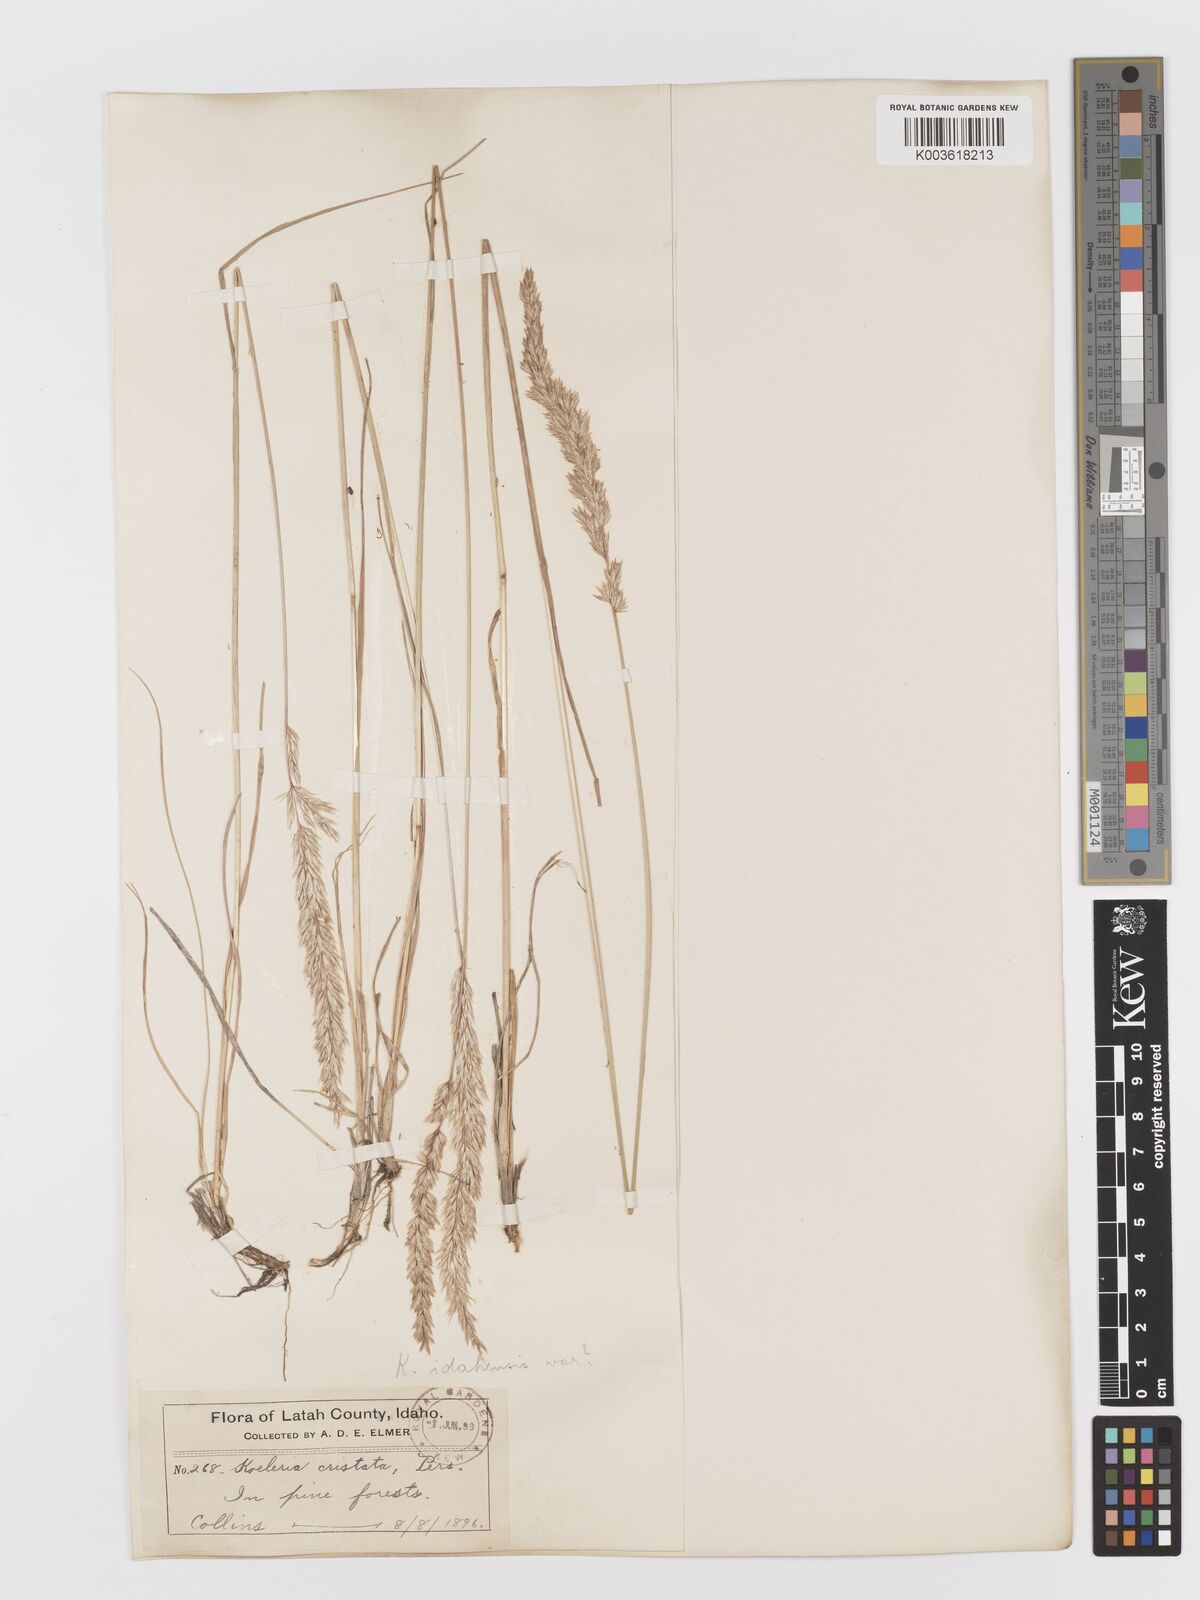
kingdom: Plantae
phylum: Tracheophyta
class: Liliopsida
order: Poales
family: Poaceae
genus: Koeleria
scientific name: Koeleria macrantha
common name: Crested hair-grass
